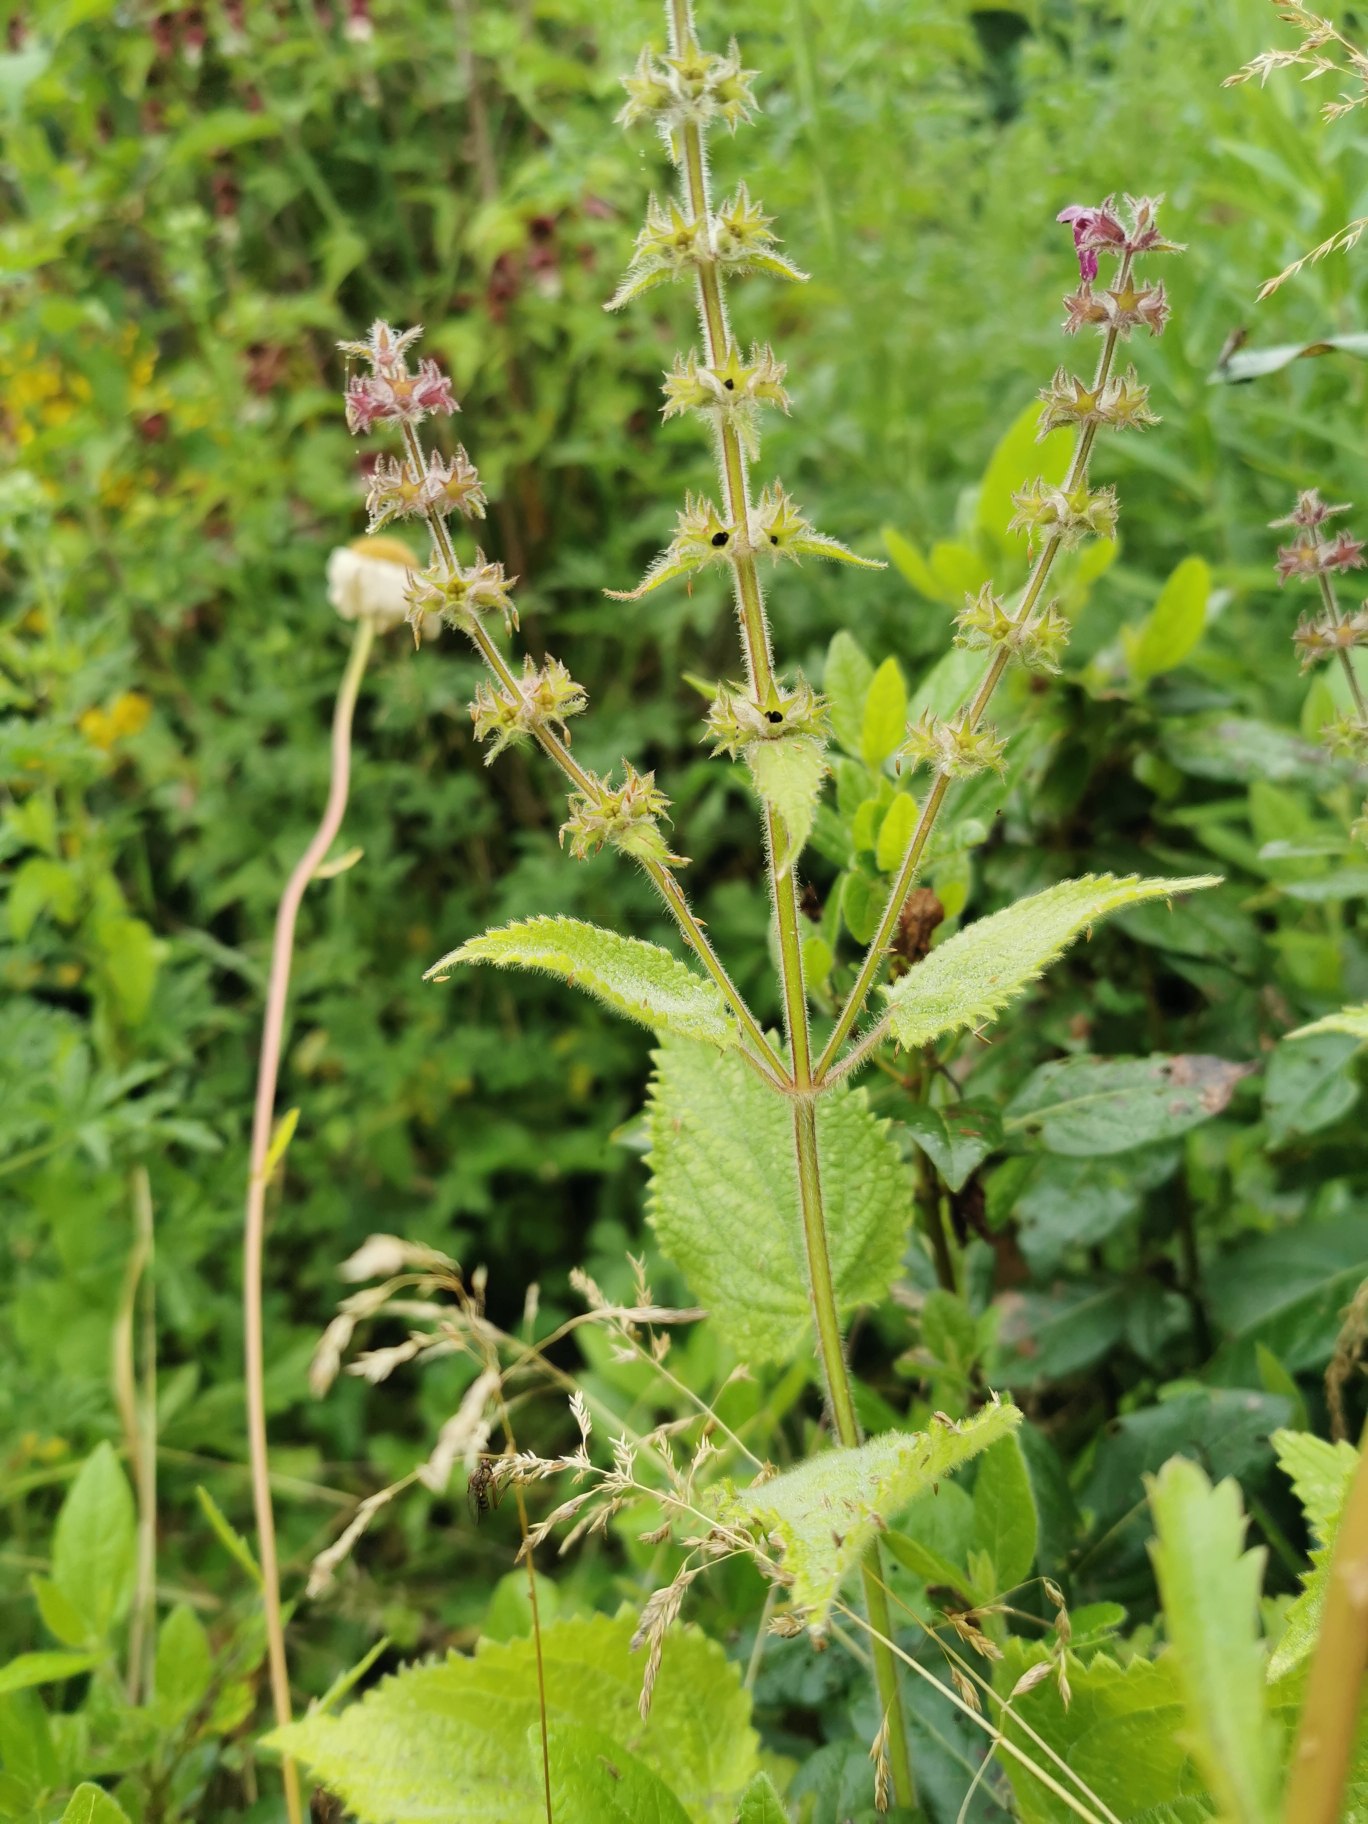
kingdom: Plantae
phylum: Tracheophyta
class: Magnoliopsida
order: Lamiales
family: Lamiaceae
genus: Stachys
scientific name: Stachys sylvatica
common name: Skov-galtetand
